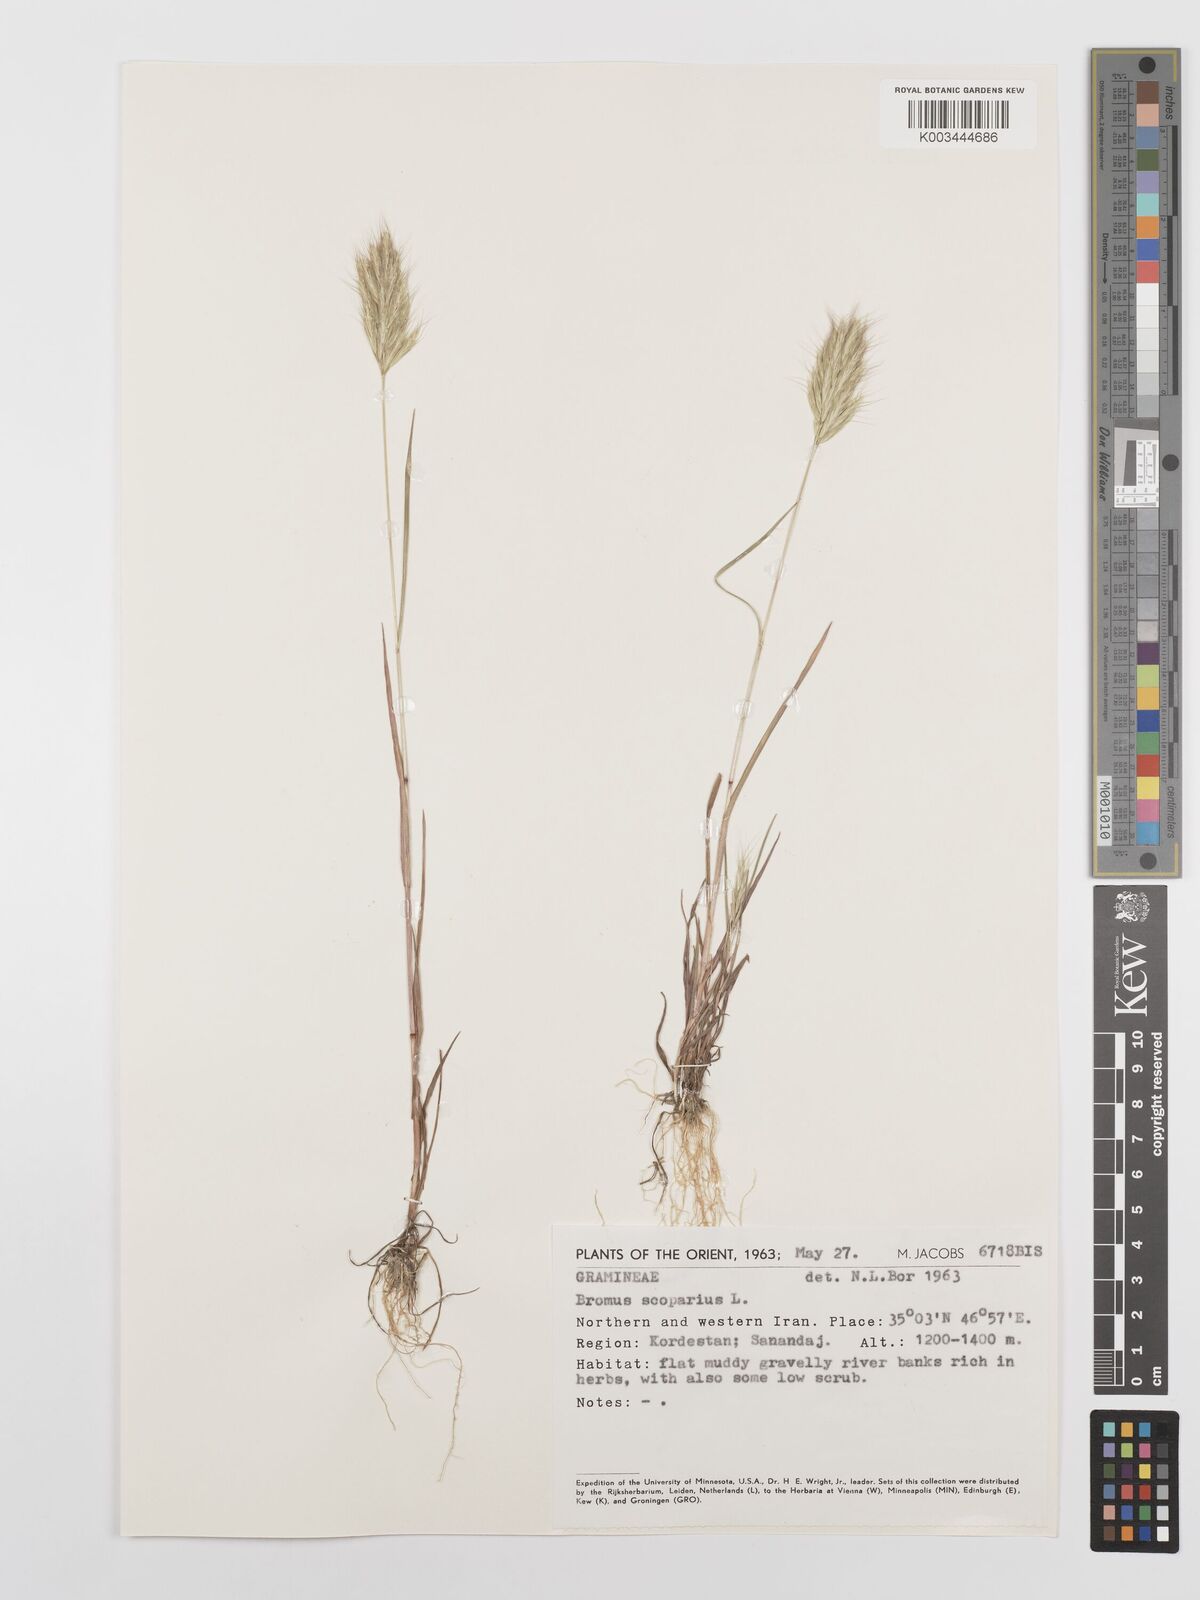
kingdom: Plantae
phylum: Tracheophyta
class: Liliopsida
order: Poales
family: Poaceae
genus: Bromus
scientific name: Bromus scoparius
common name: Broom brome
